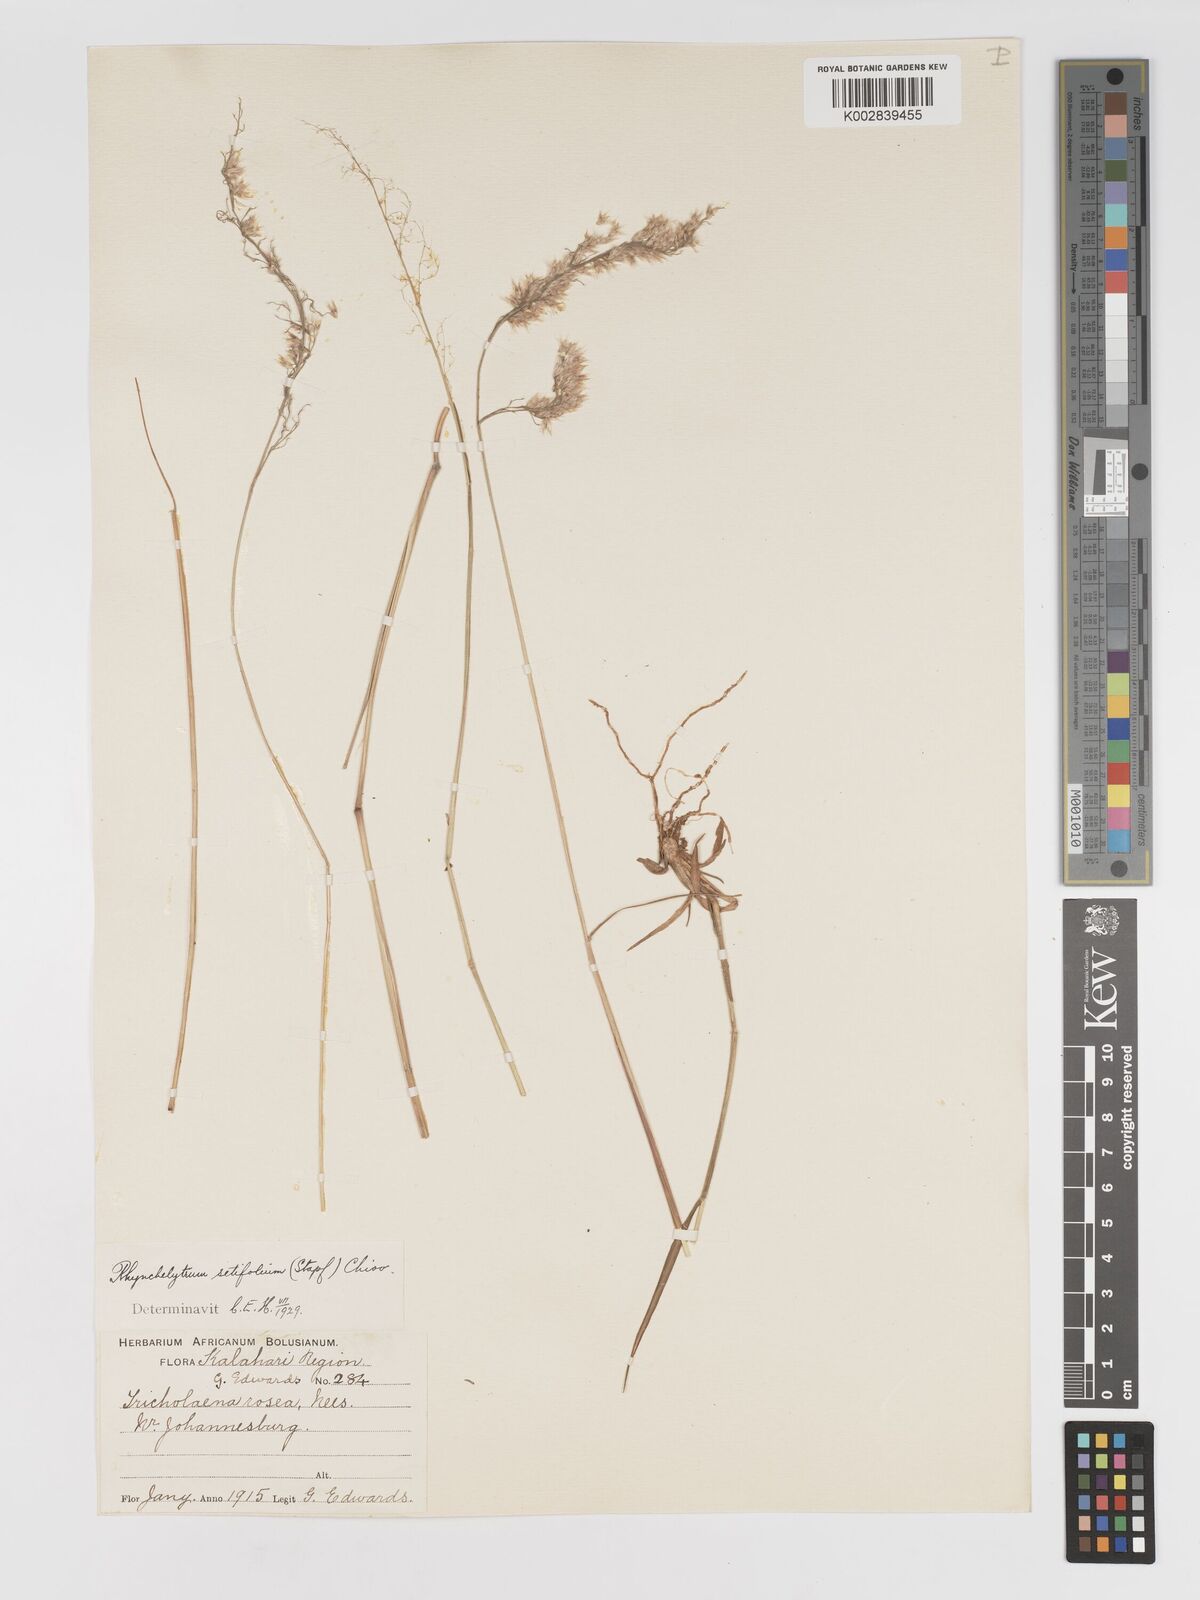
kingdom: Plantae
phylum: Tracheophyta
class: Liliopsida
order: Poales
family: Poaceae
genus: Melinis
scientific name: Melinis nerviglumis
